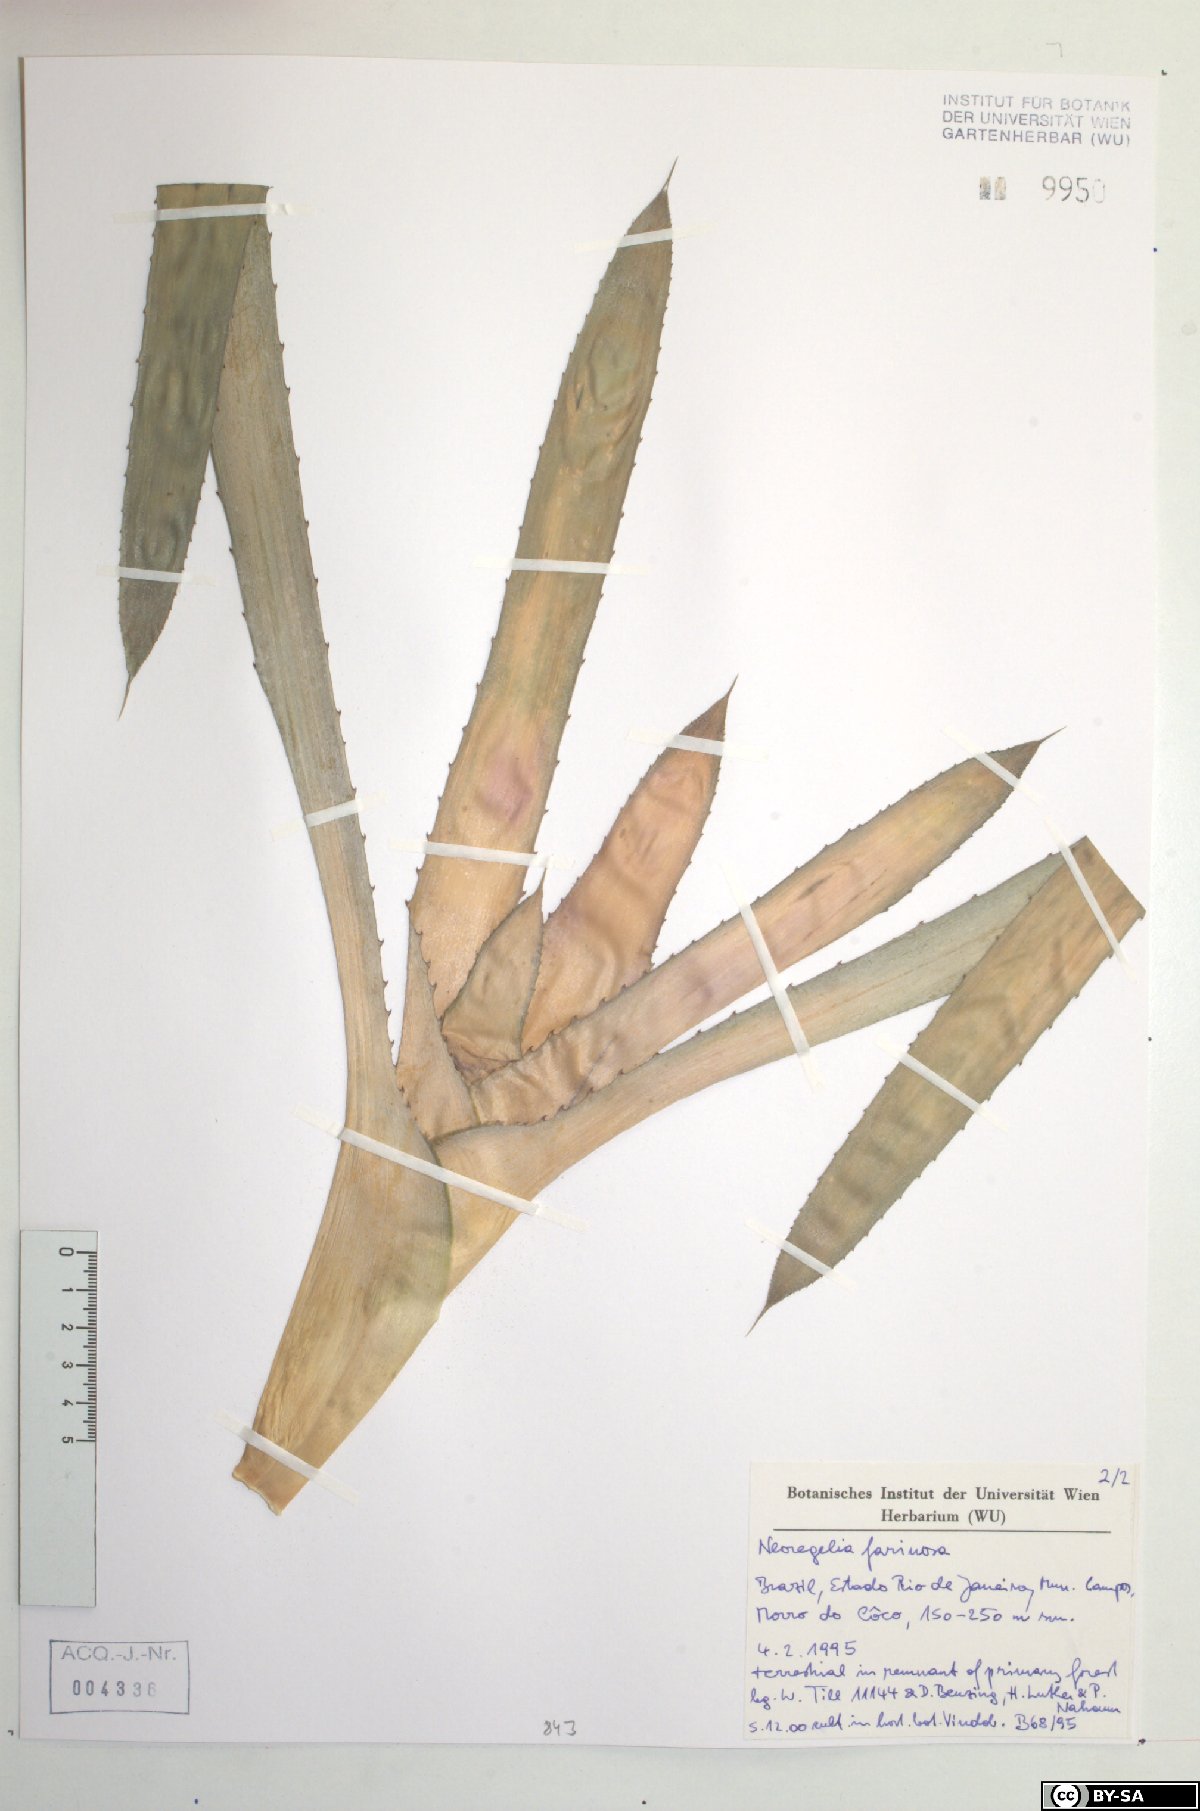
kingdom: Plantae
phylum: Tracheophyta
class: Liliopsida
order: Poales
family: Bromeliaceae
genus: Neoregelia
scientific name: Neoregelia farinosa
